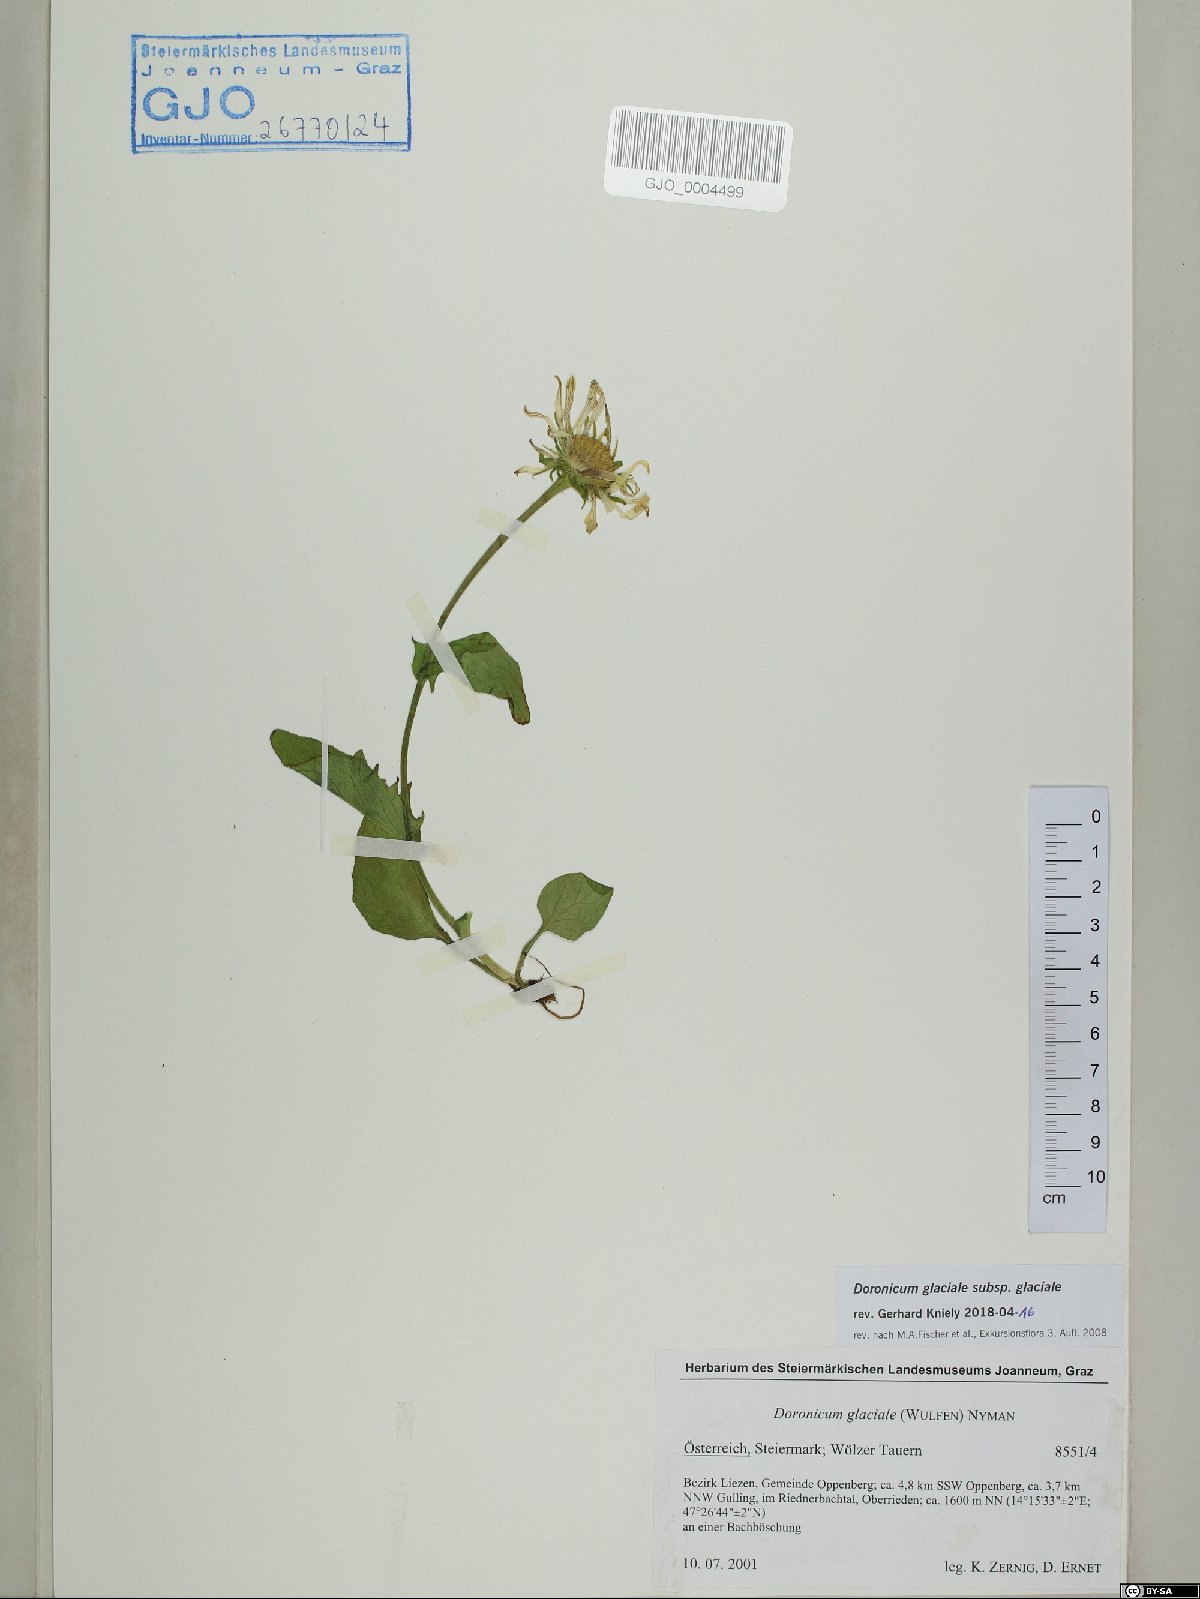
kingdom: Plantae
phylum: Tracheophyta
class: Magnoliopsida
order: Asterales
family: Asteraceae
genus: Doronicum
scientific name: Doronicum glaciale
